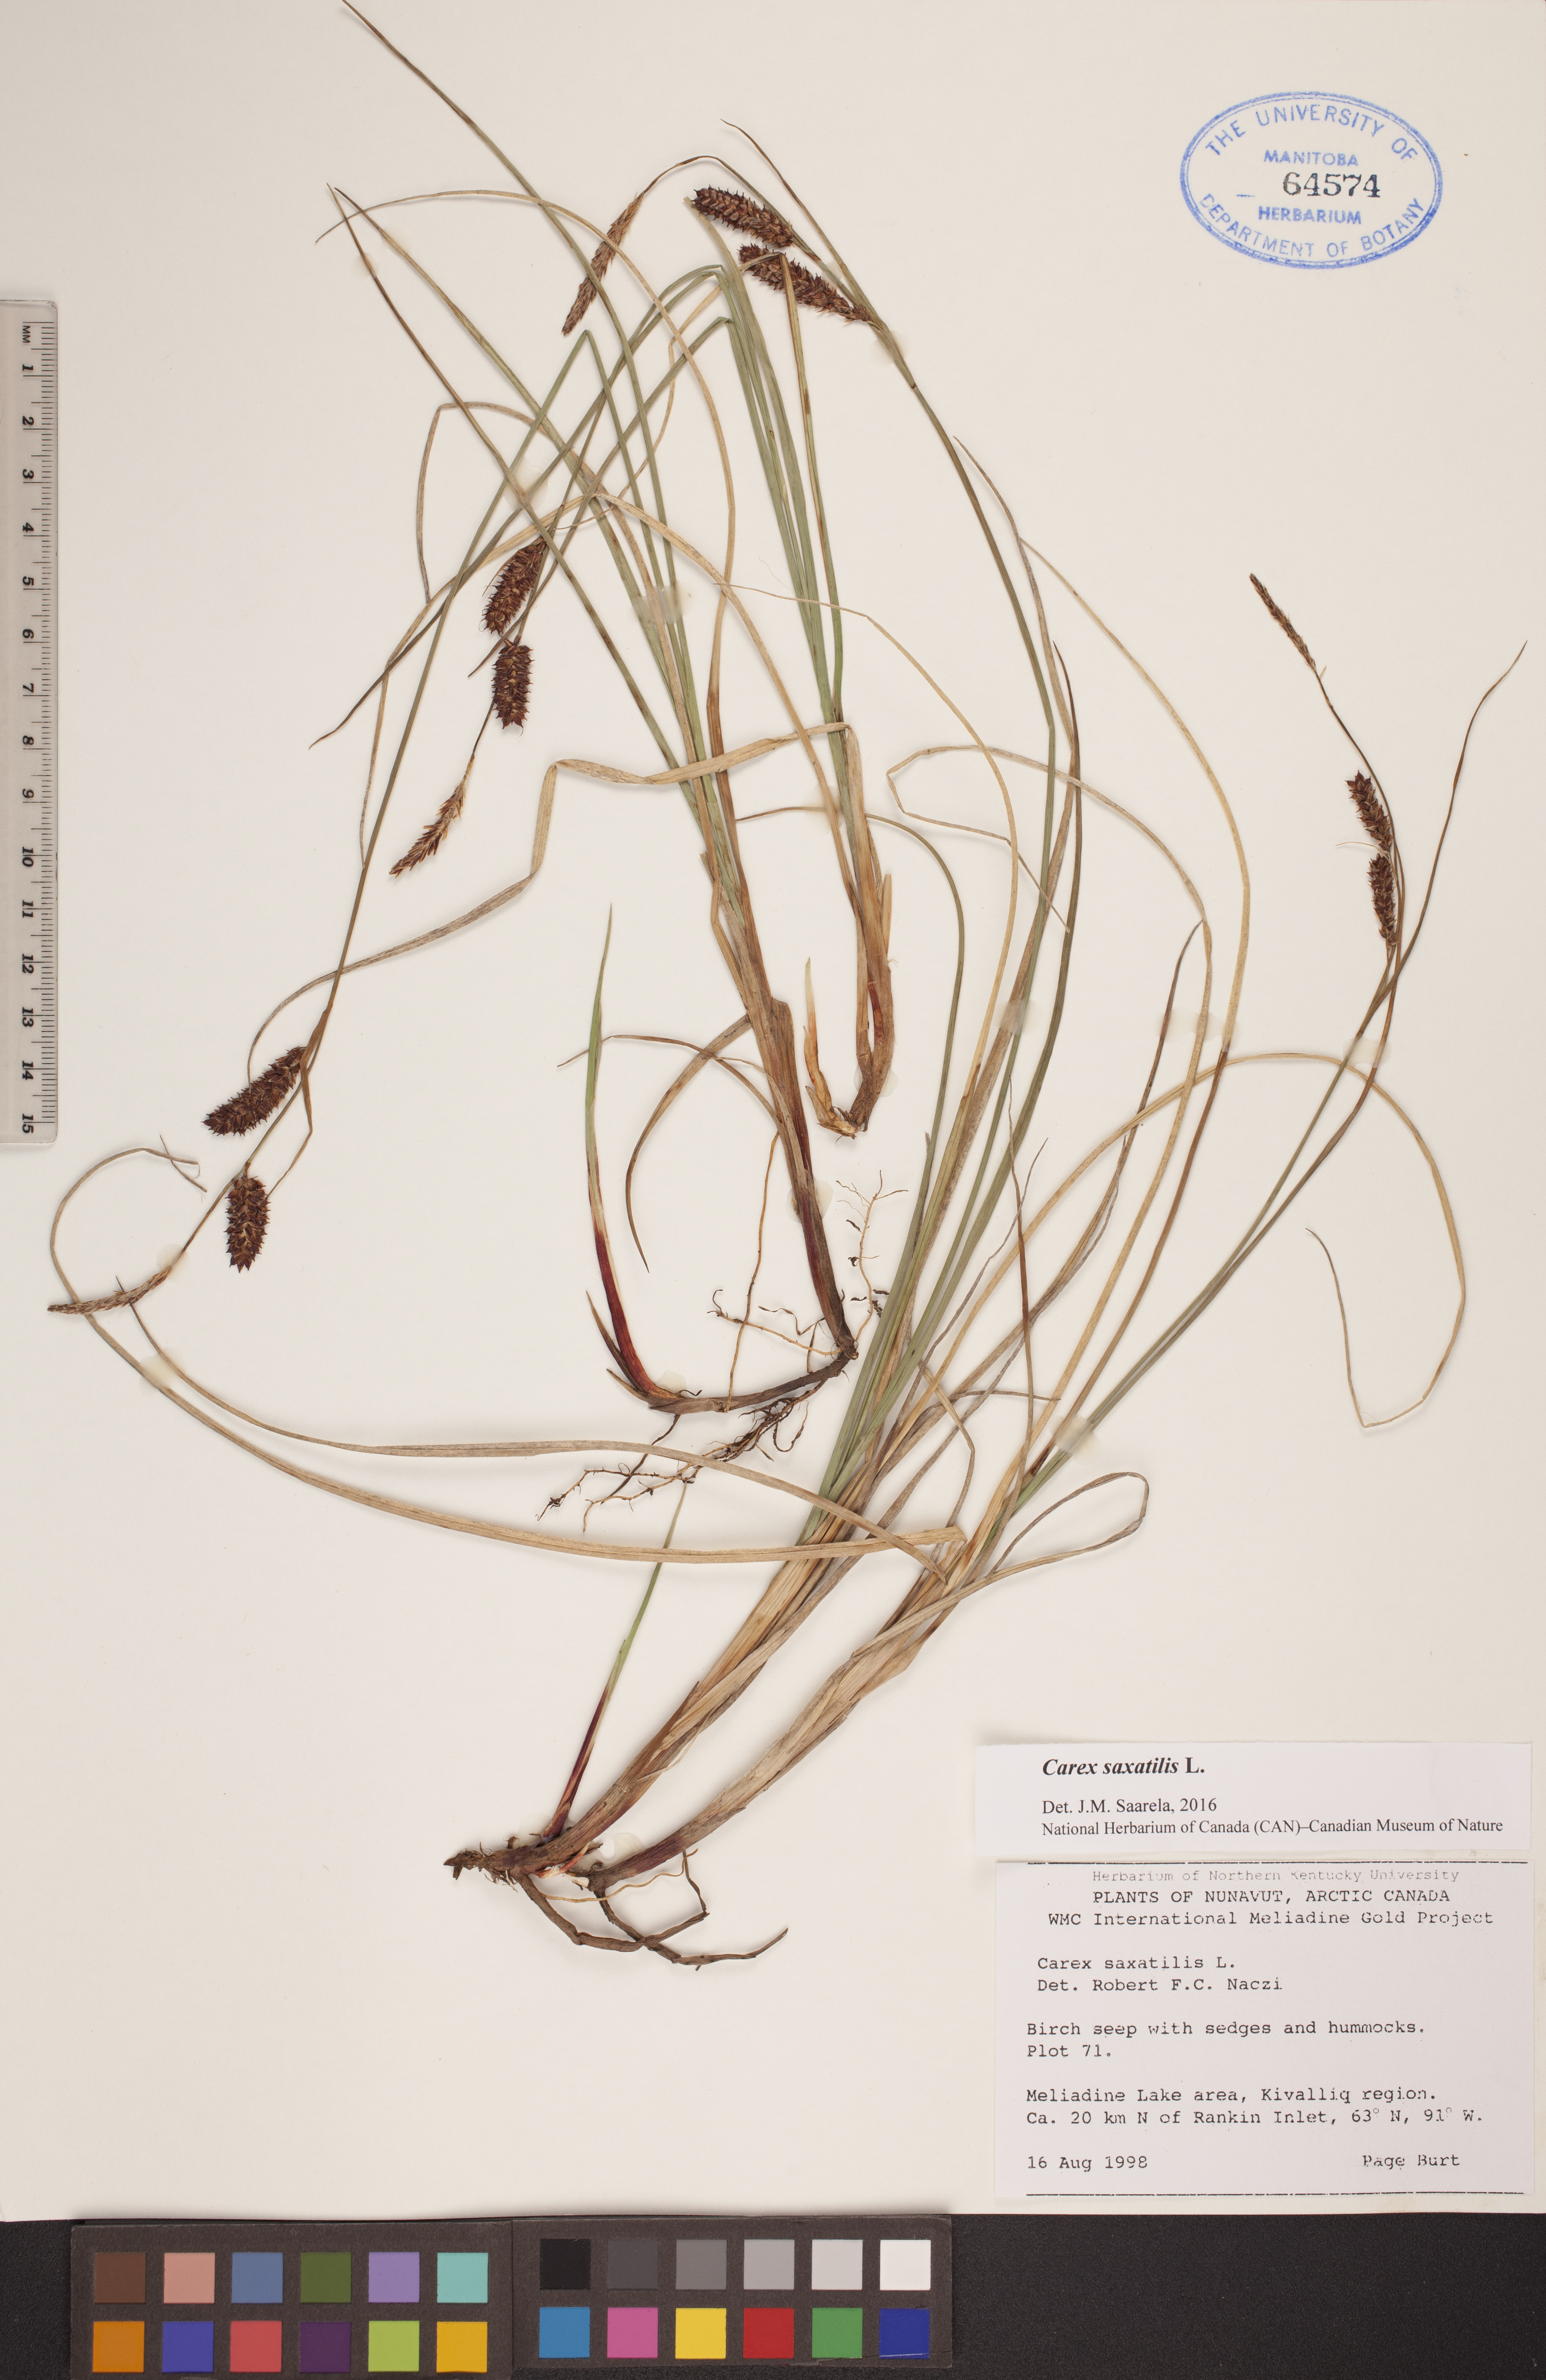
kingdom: Plantae
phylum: Tracheophyta
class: Liliopsida
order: Poales
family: Cyperaceae
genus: Carex
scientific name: Carex saxatilis
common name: Russet sedge
